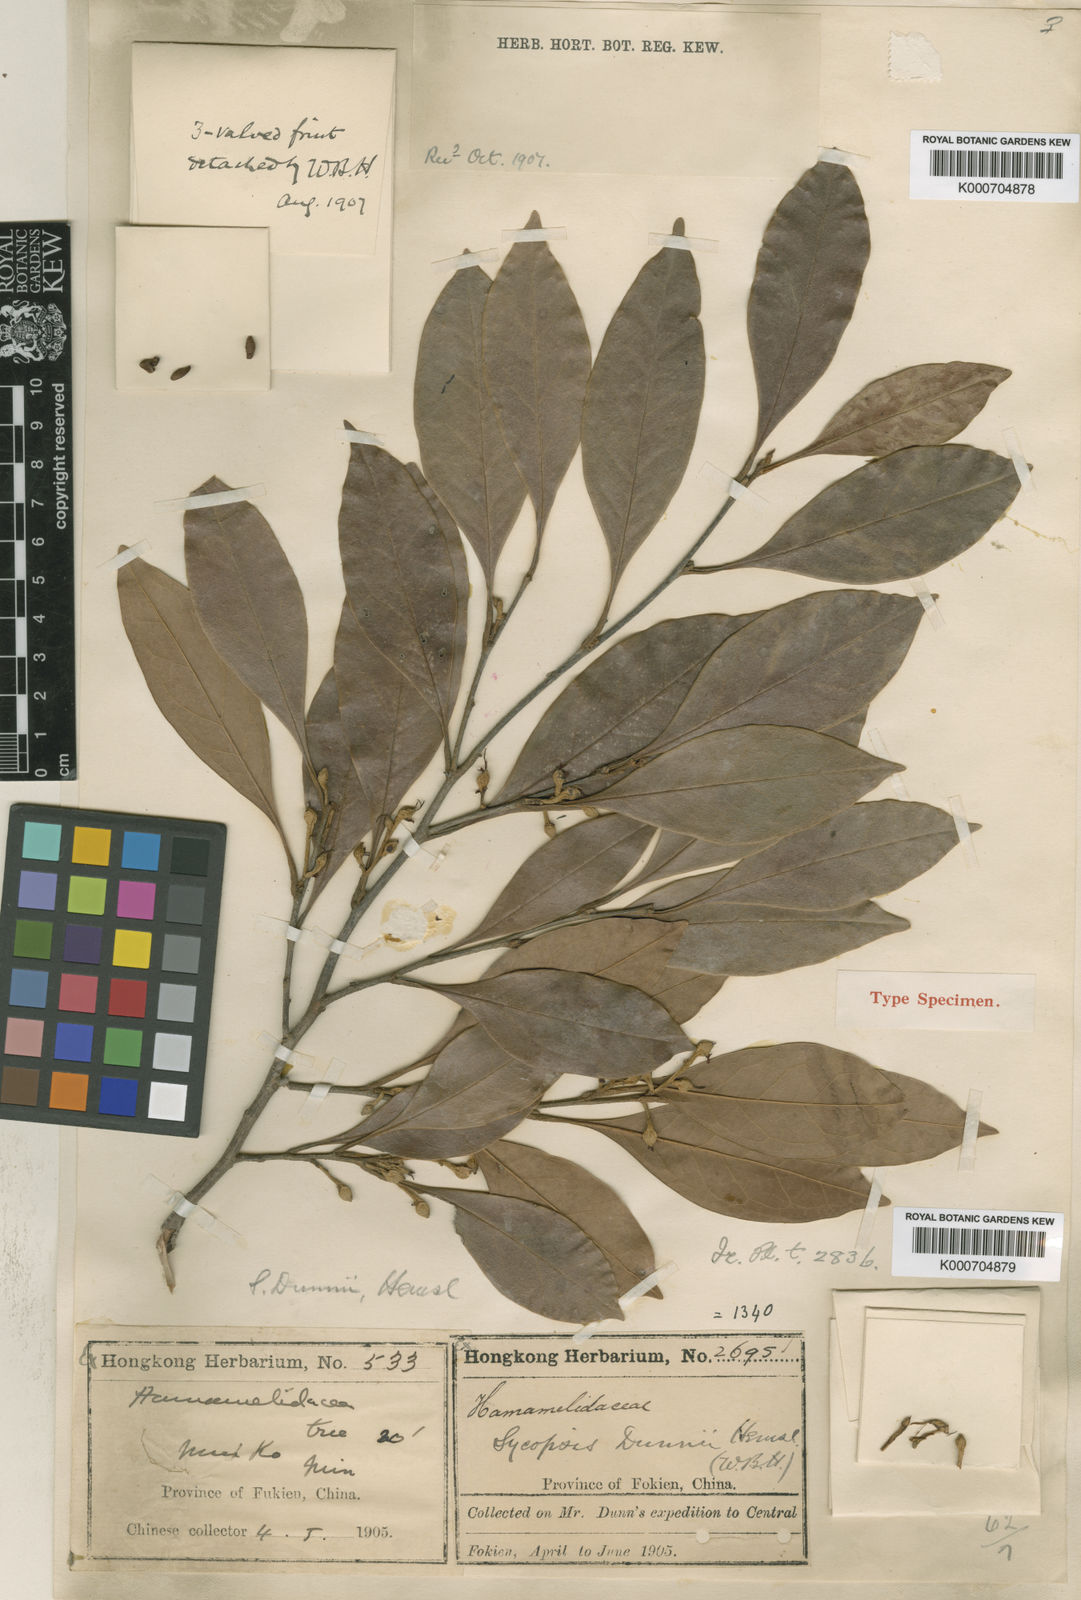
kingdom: Plantae
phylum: Tracheophyta
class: Magnoliopsida
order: Saxifragales
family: Hamamelidaceae
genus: Distyliopsis
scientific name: Distyliopsis dunnii
